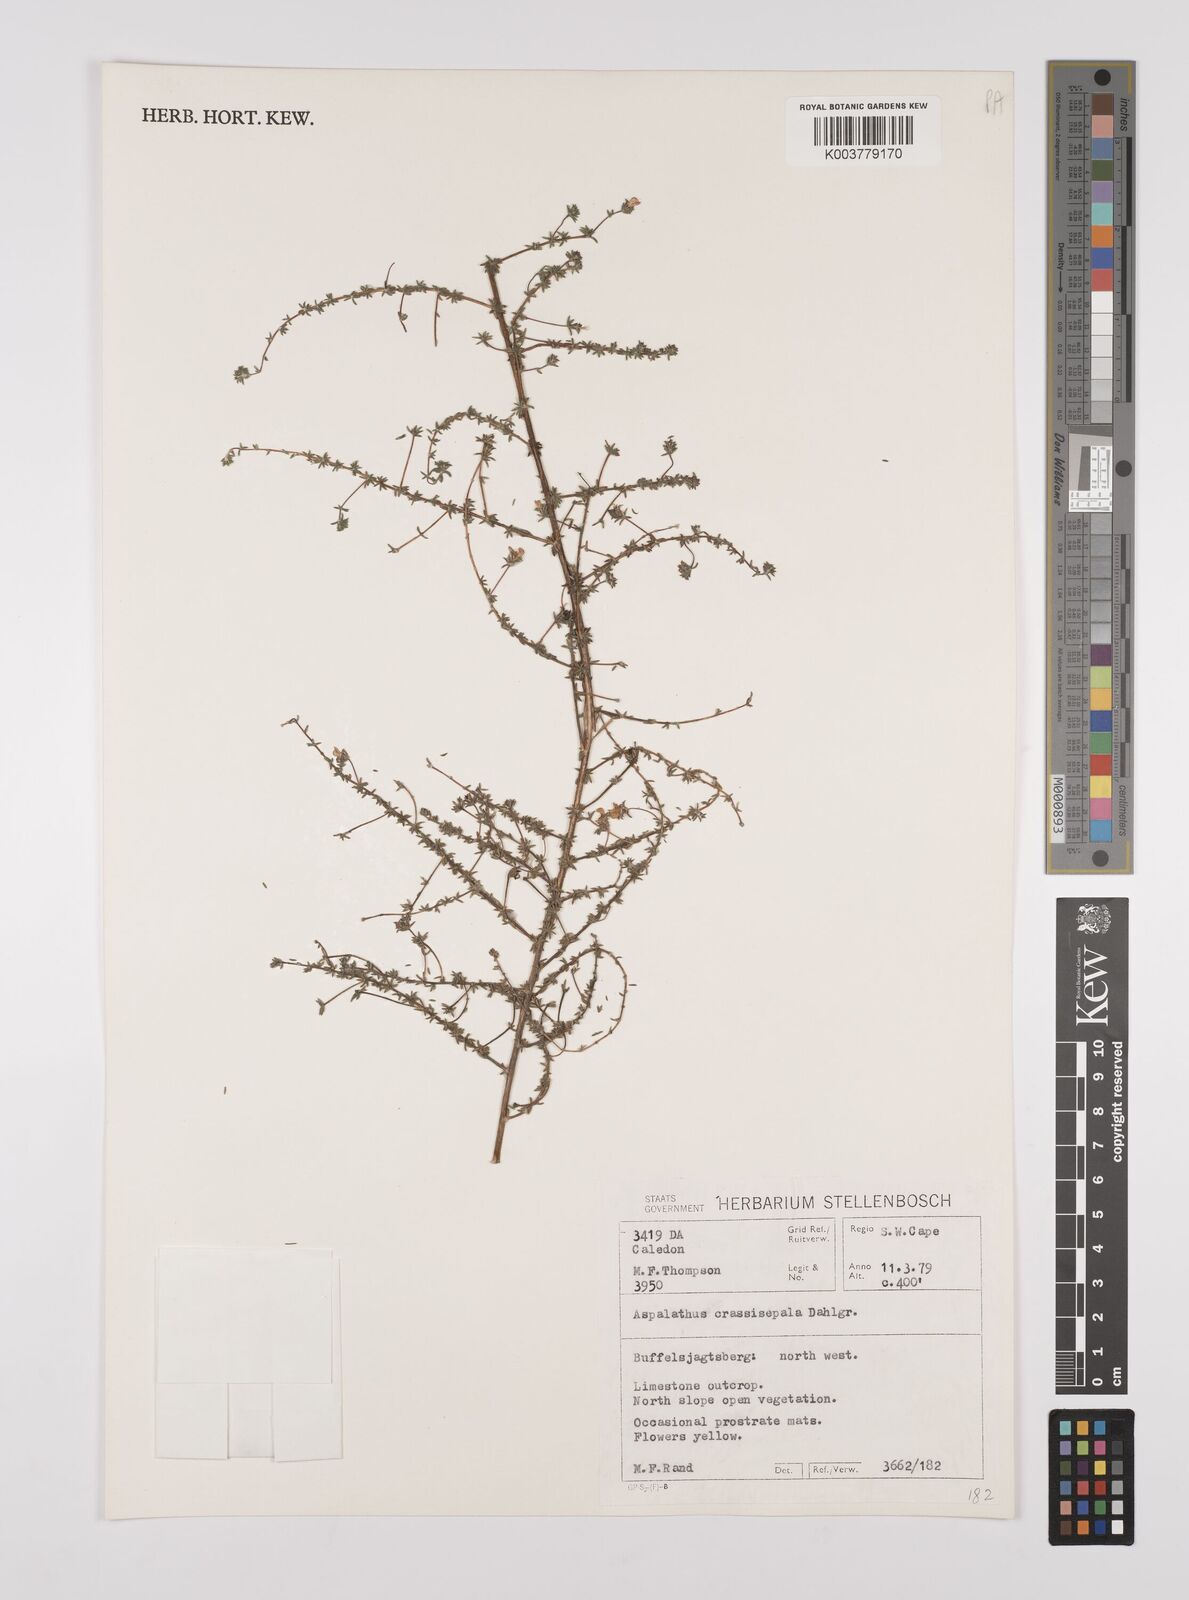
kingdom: Plantae
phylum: Tracheophyta
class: Magnoliopsida
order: Fabales
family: Fabaceae
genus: Aspalathus
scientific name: Aspalathus crassisepala
